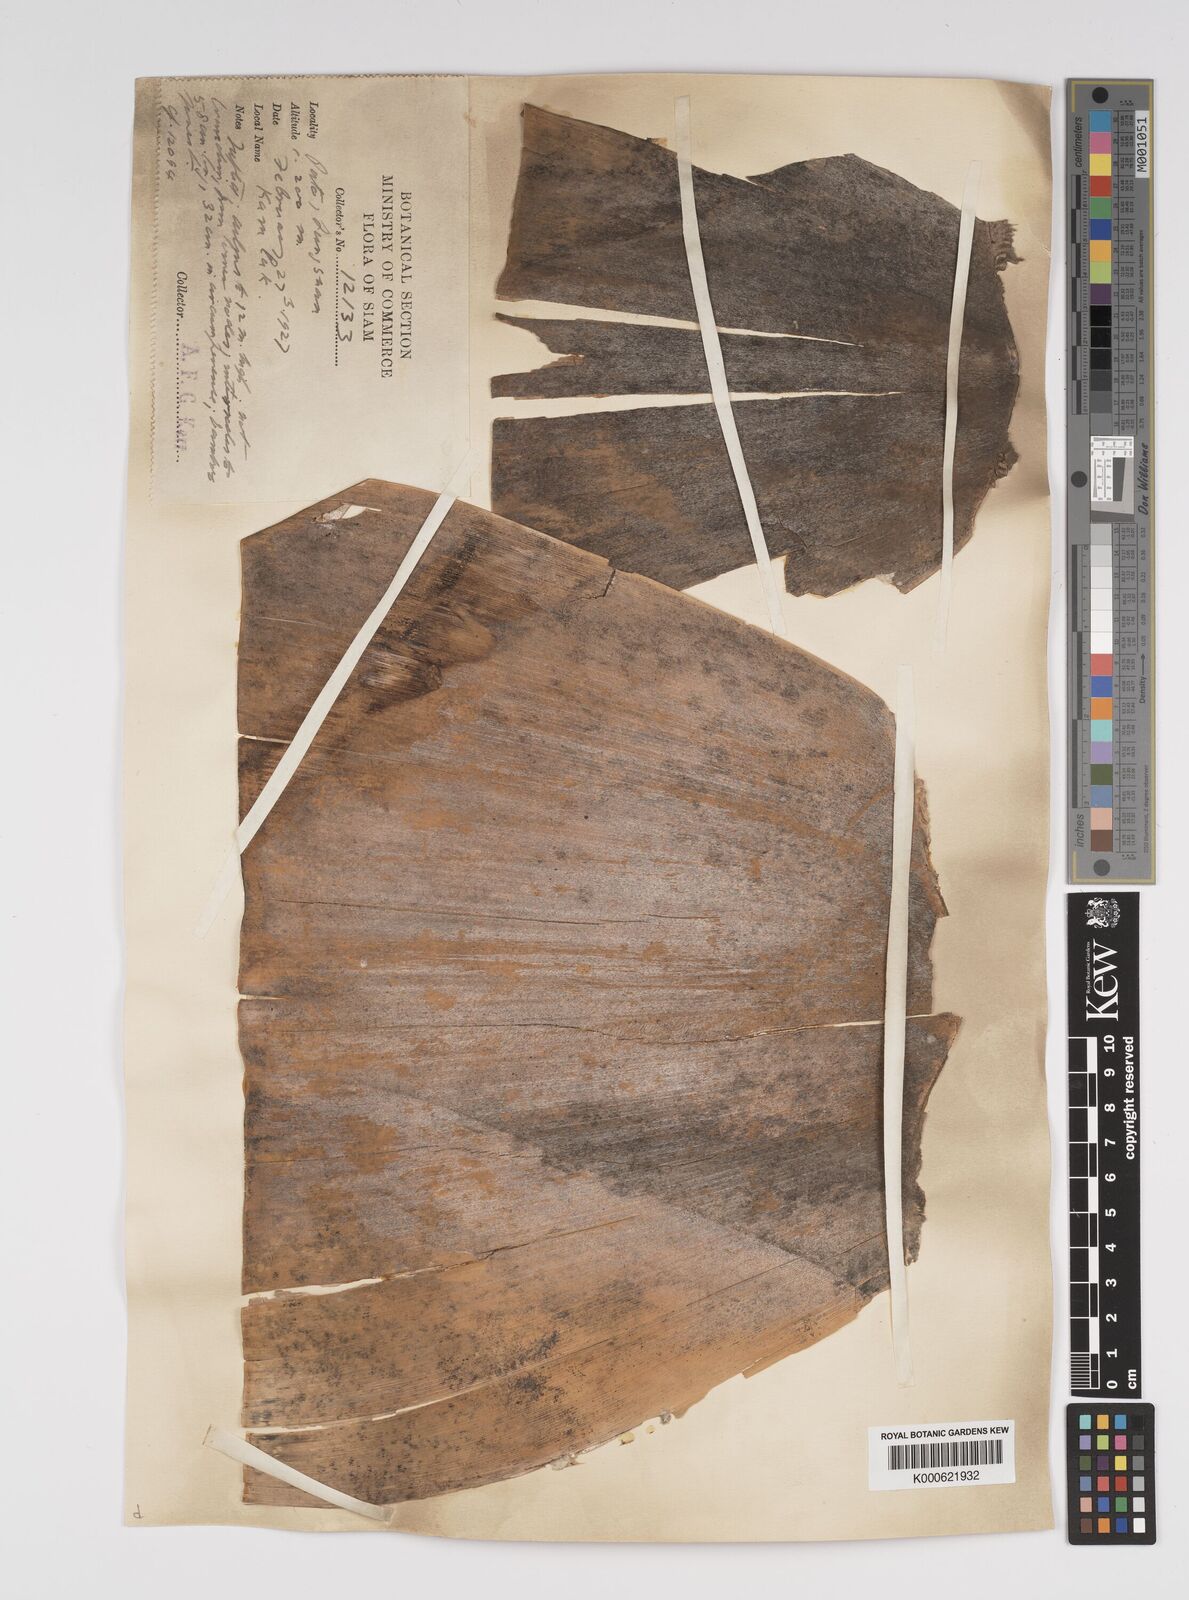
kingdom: Plantae
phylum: Tracheophyta
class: Liliopsida
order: Poales
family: Poaceae
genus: Bambusa
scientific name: Bambusa
